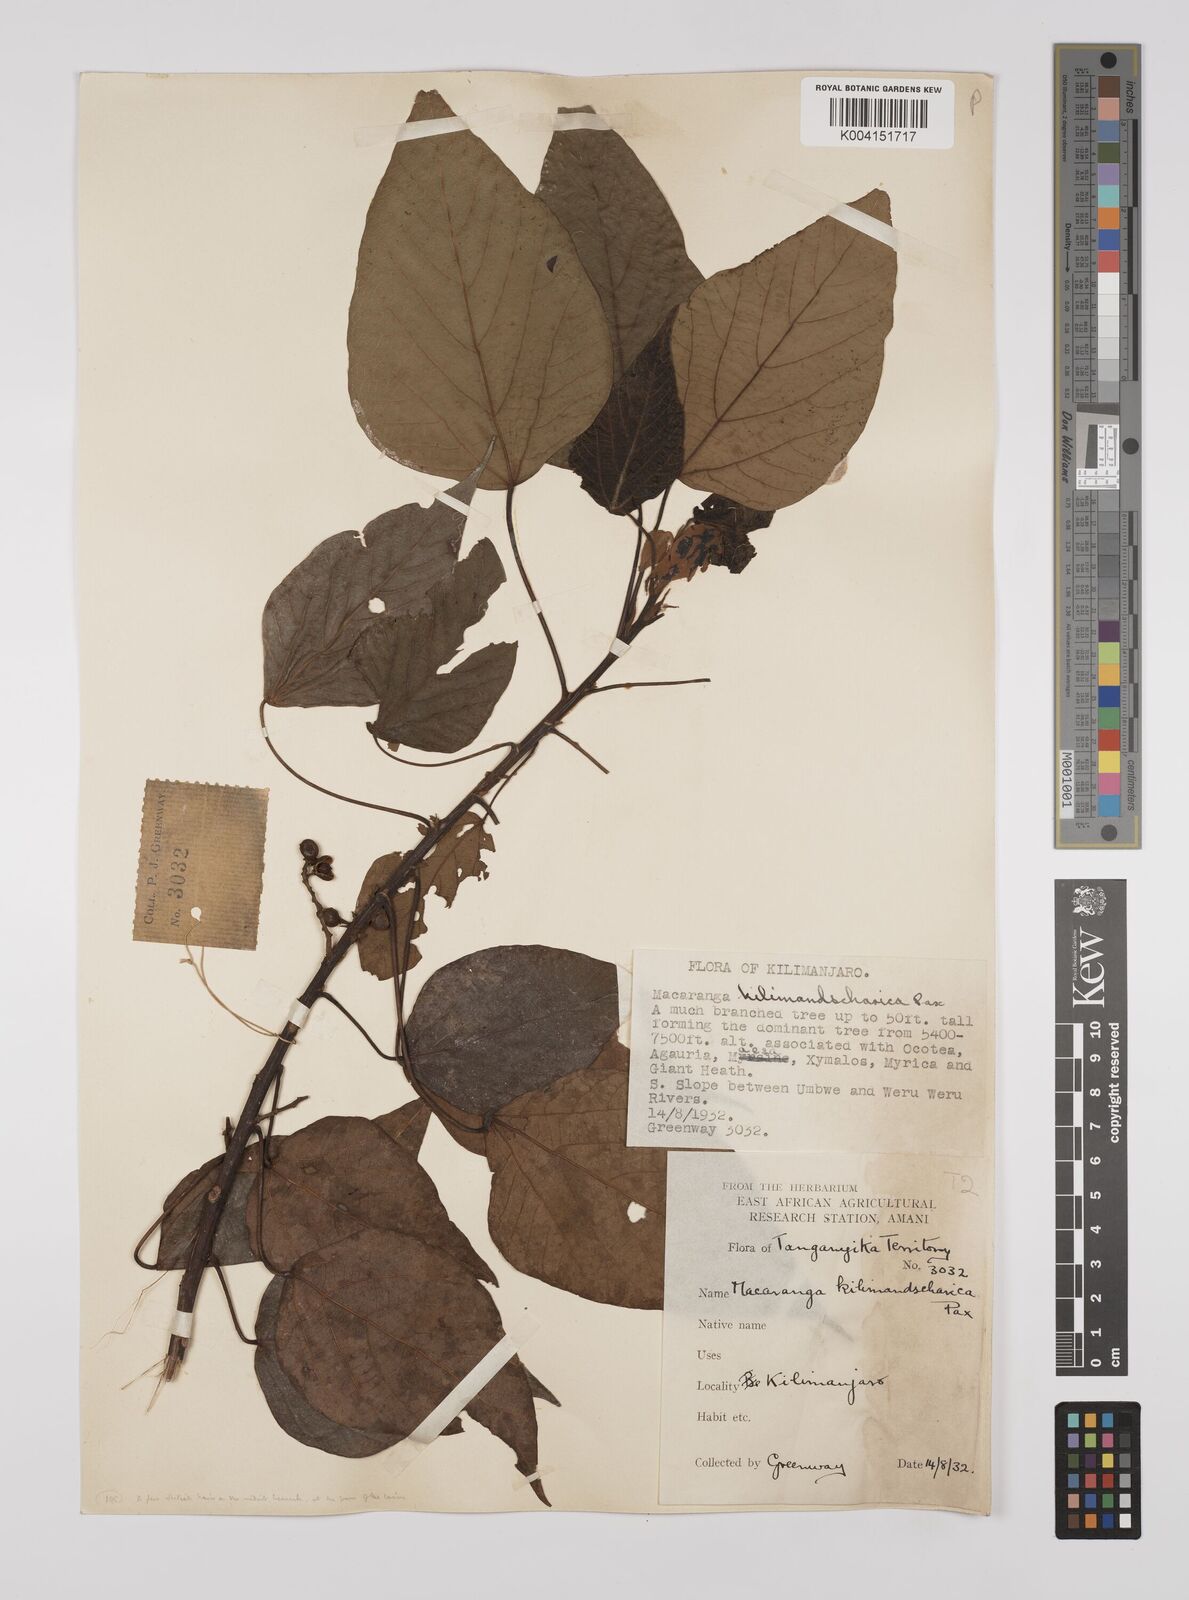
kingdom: Plantae
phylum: Tracheophyta
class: Magnoliopsida
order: Malpighiales
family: Euphorbiaceae
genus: Macaranga
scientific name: Macaranga kilimandscharica
